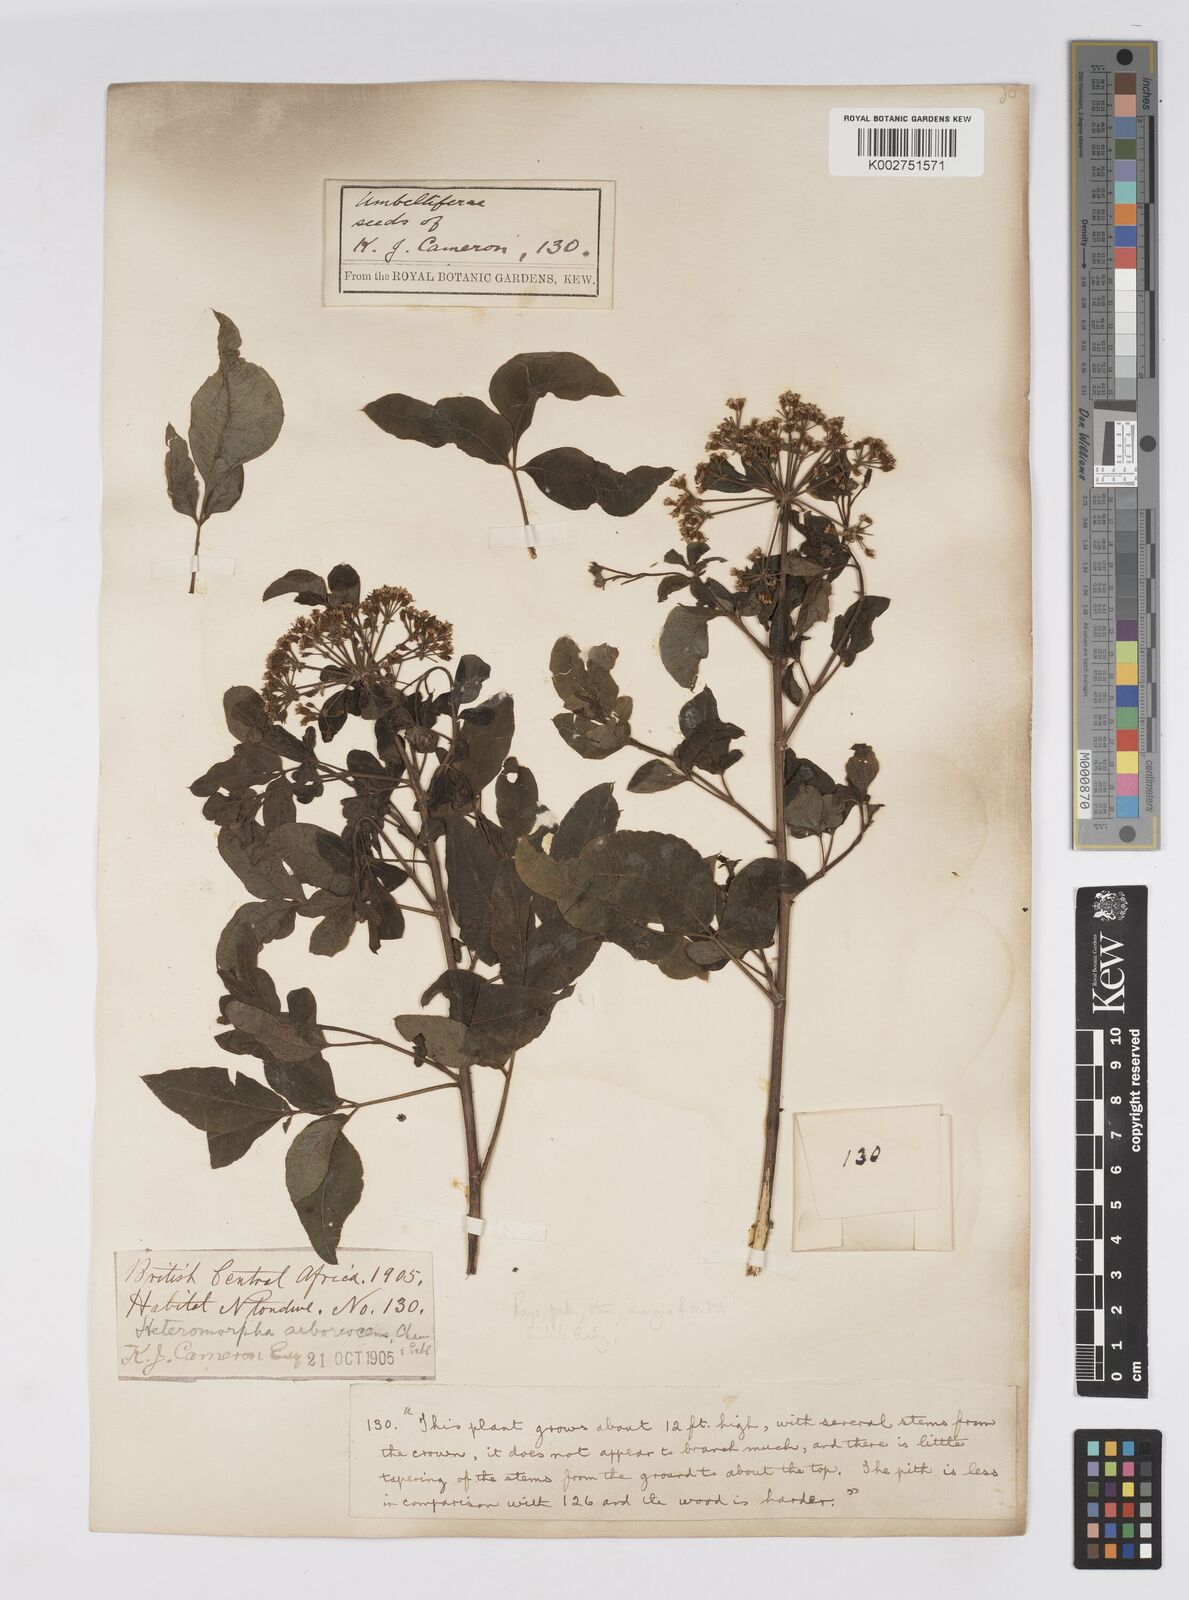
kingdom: Plantae
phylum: Tracheophyta
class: Magnoliopsida
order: Apiales
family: Apiaceae
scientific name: Apiaceae
